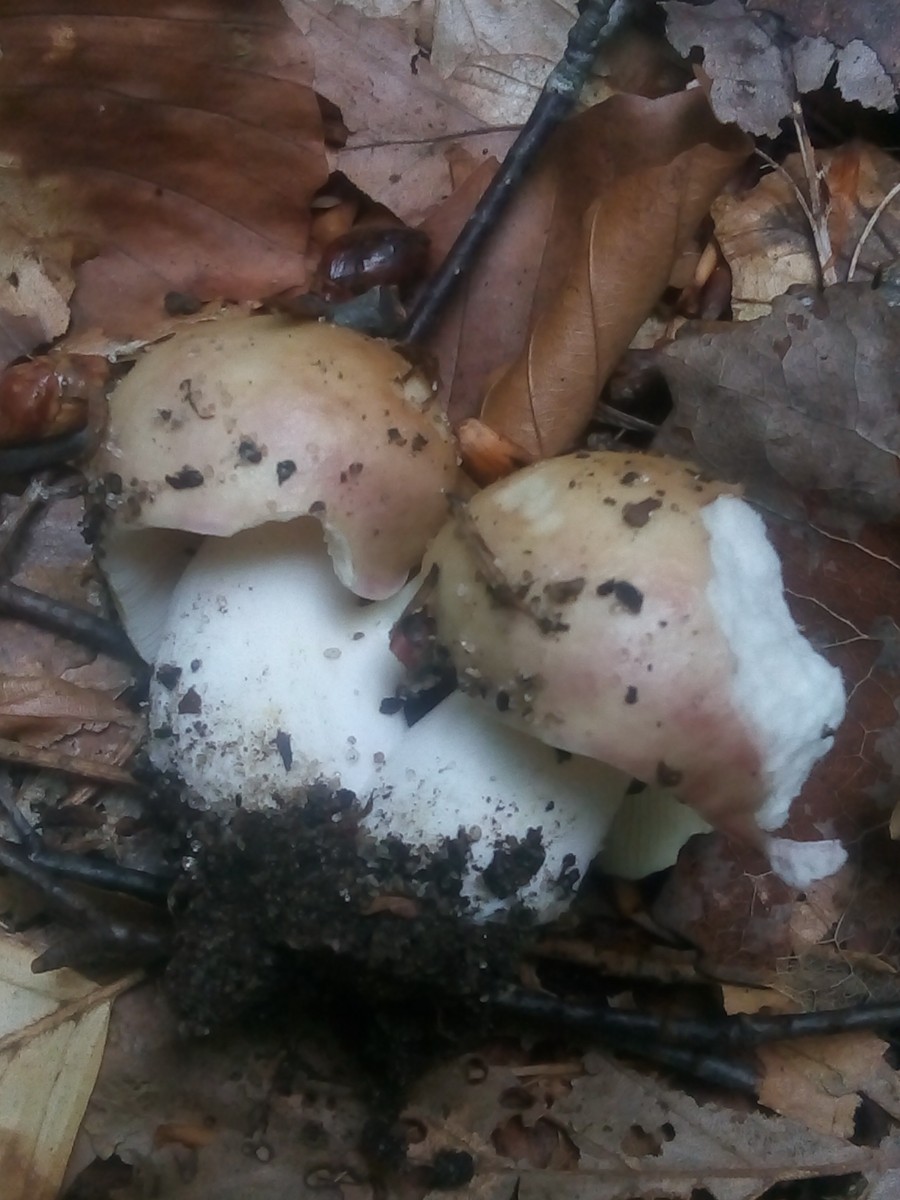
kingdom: Fungi
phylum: Basidiomycota
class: Agaricomycetes
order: Russulales
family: Russulaceae
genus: Russula
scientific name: Russula
